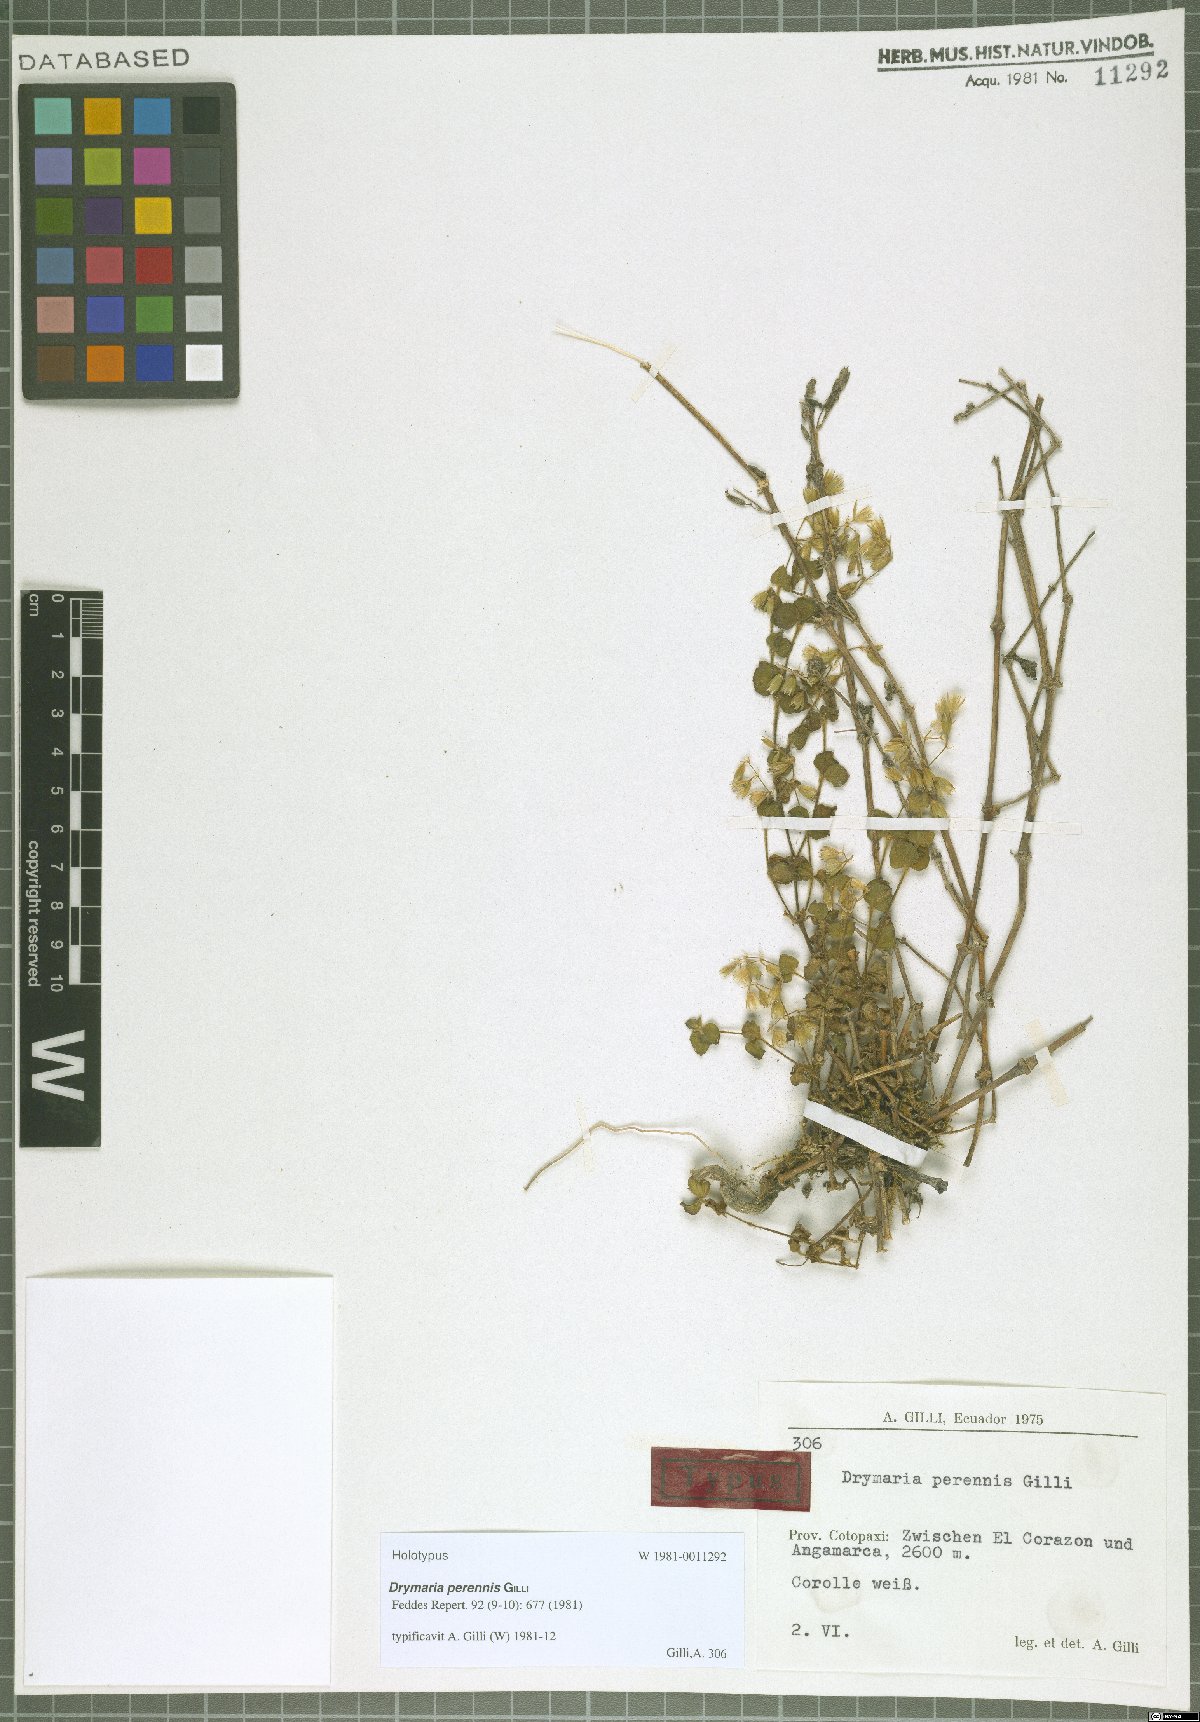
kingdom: Plantae
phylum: Tracheophyta
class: Magnoliopsida
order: Caryophyllales
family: Caryophyllaceae
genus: Drymaria
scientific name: Drymaria perennis
